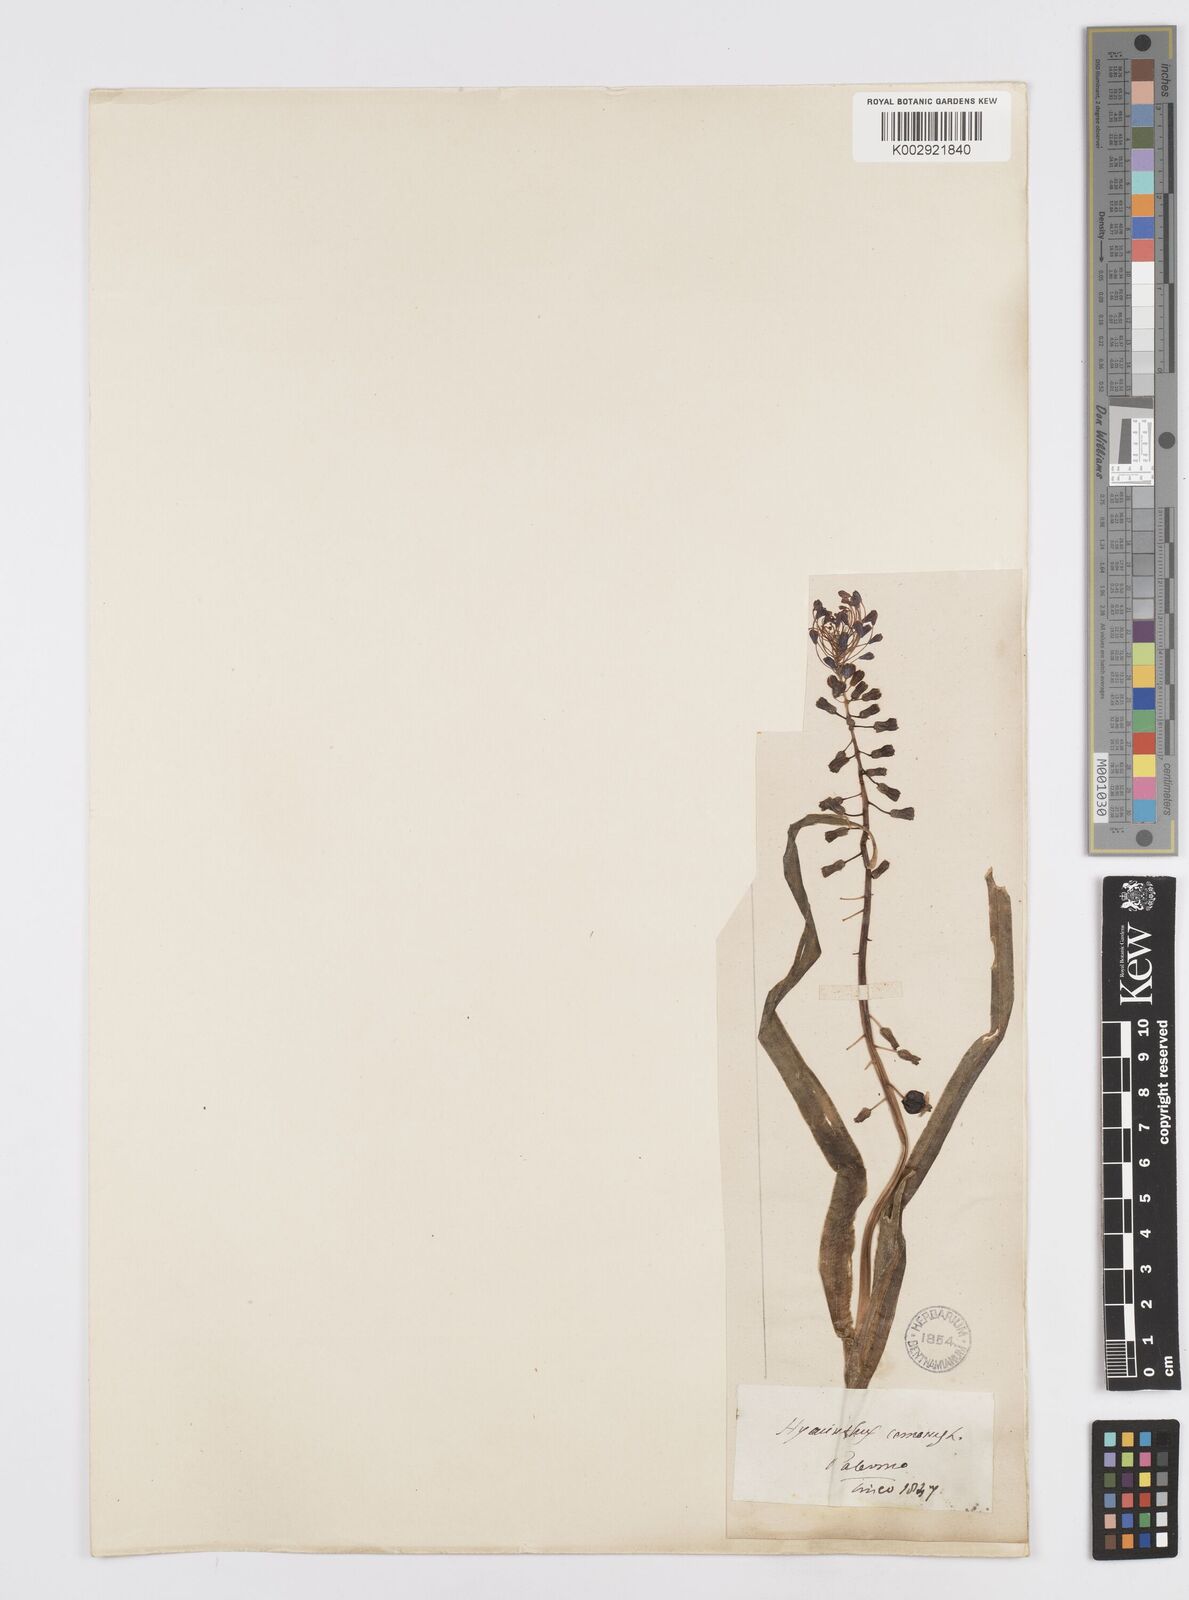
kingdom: Plantae
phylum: Tracheophyta
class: Liliopsida
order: Asparagales
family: Asparagaceae
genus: Muscari
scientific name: Muscari comosum
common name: Tassel hyacinth
